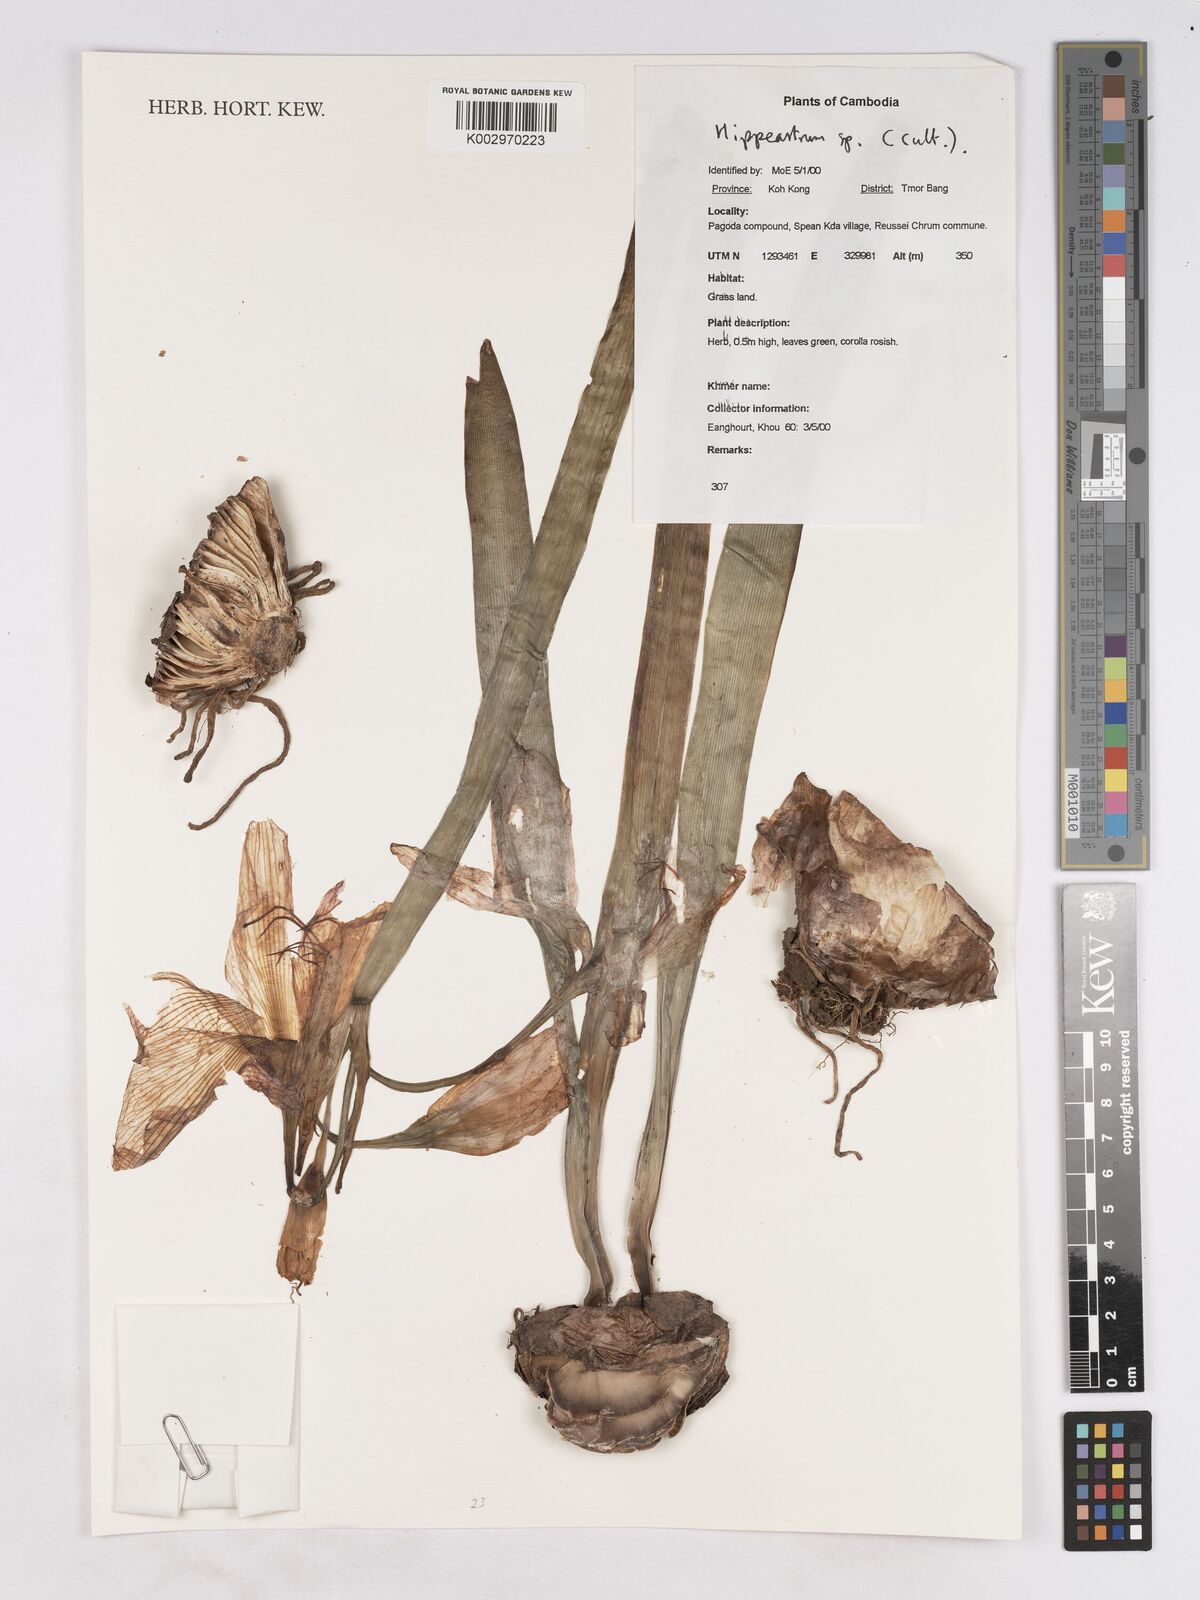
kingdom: Plantae
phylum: Tracheophyta
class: Liliopsida
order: Asparagales
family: Amaryllidaceae
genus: Hippeastrum
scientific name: Hippeastrum
